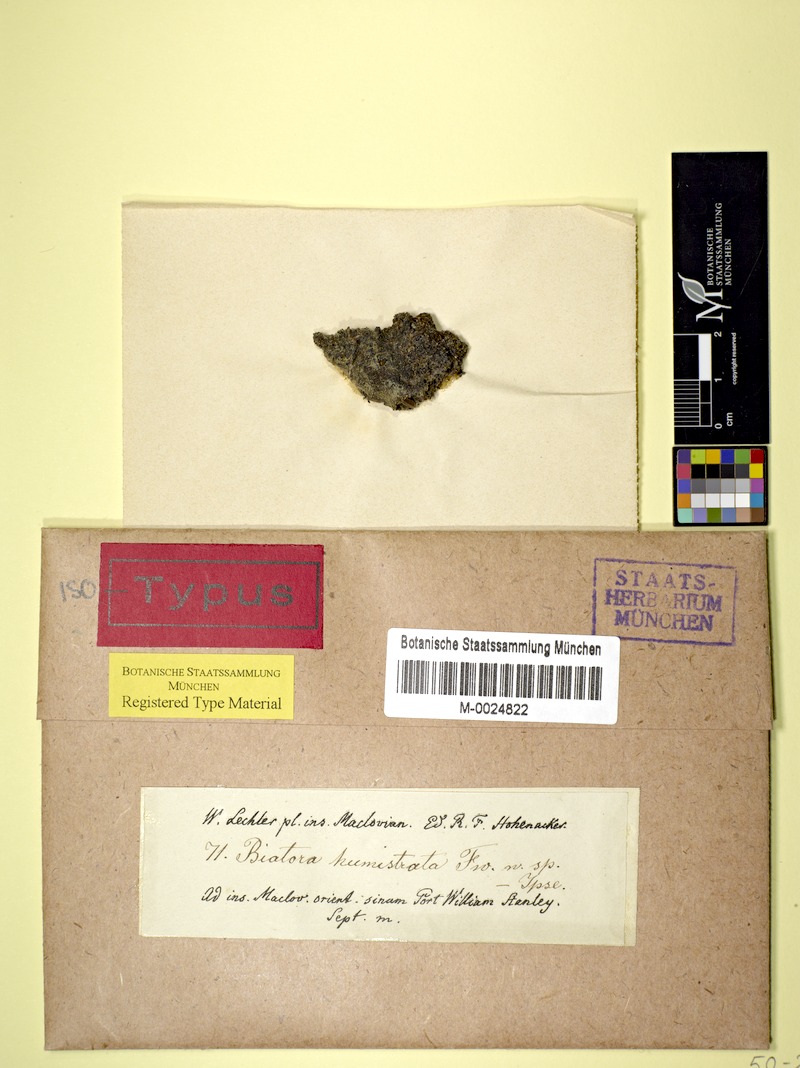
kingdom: Fungi
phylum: Ascomycota
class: Lecanoromycetes
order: Lecideales
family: Lecideaceae
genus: Lecidea
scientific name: Lecidea humistrata
